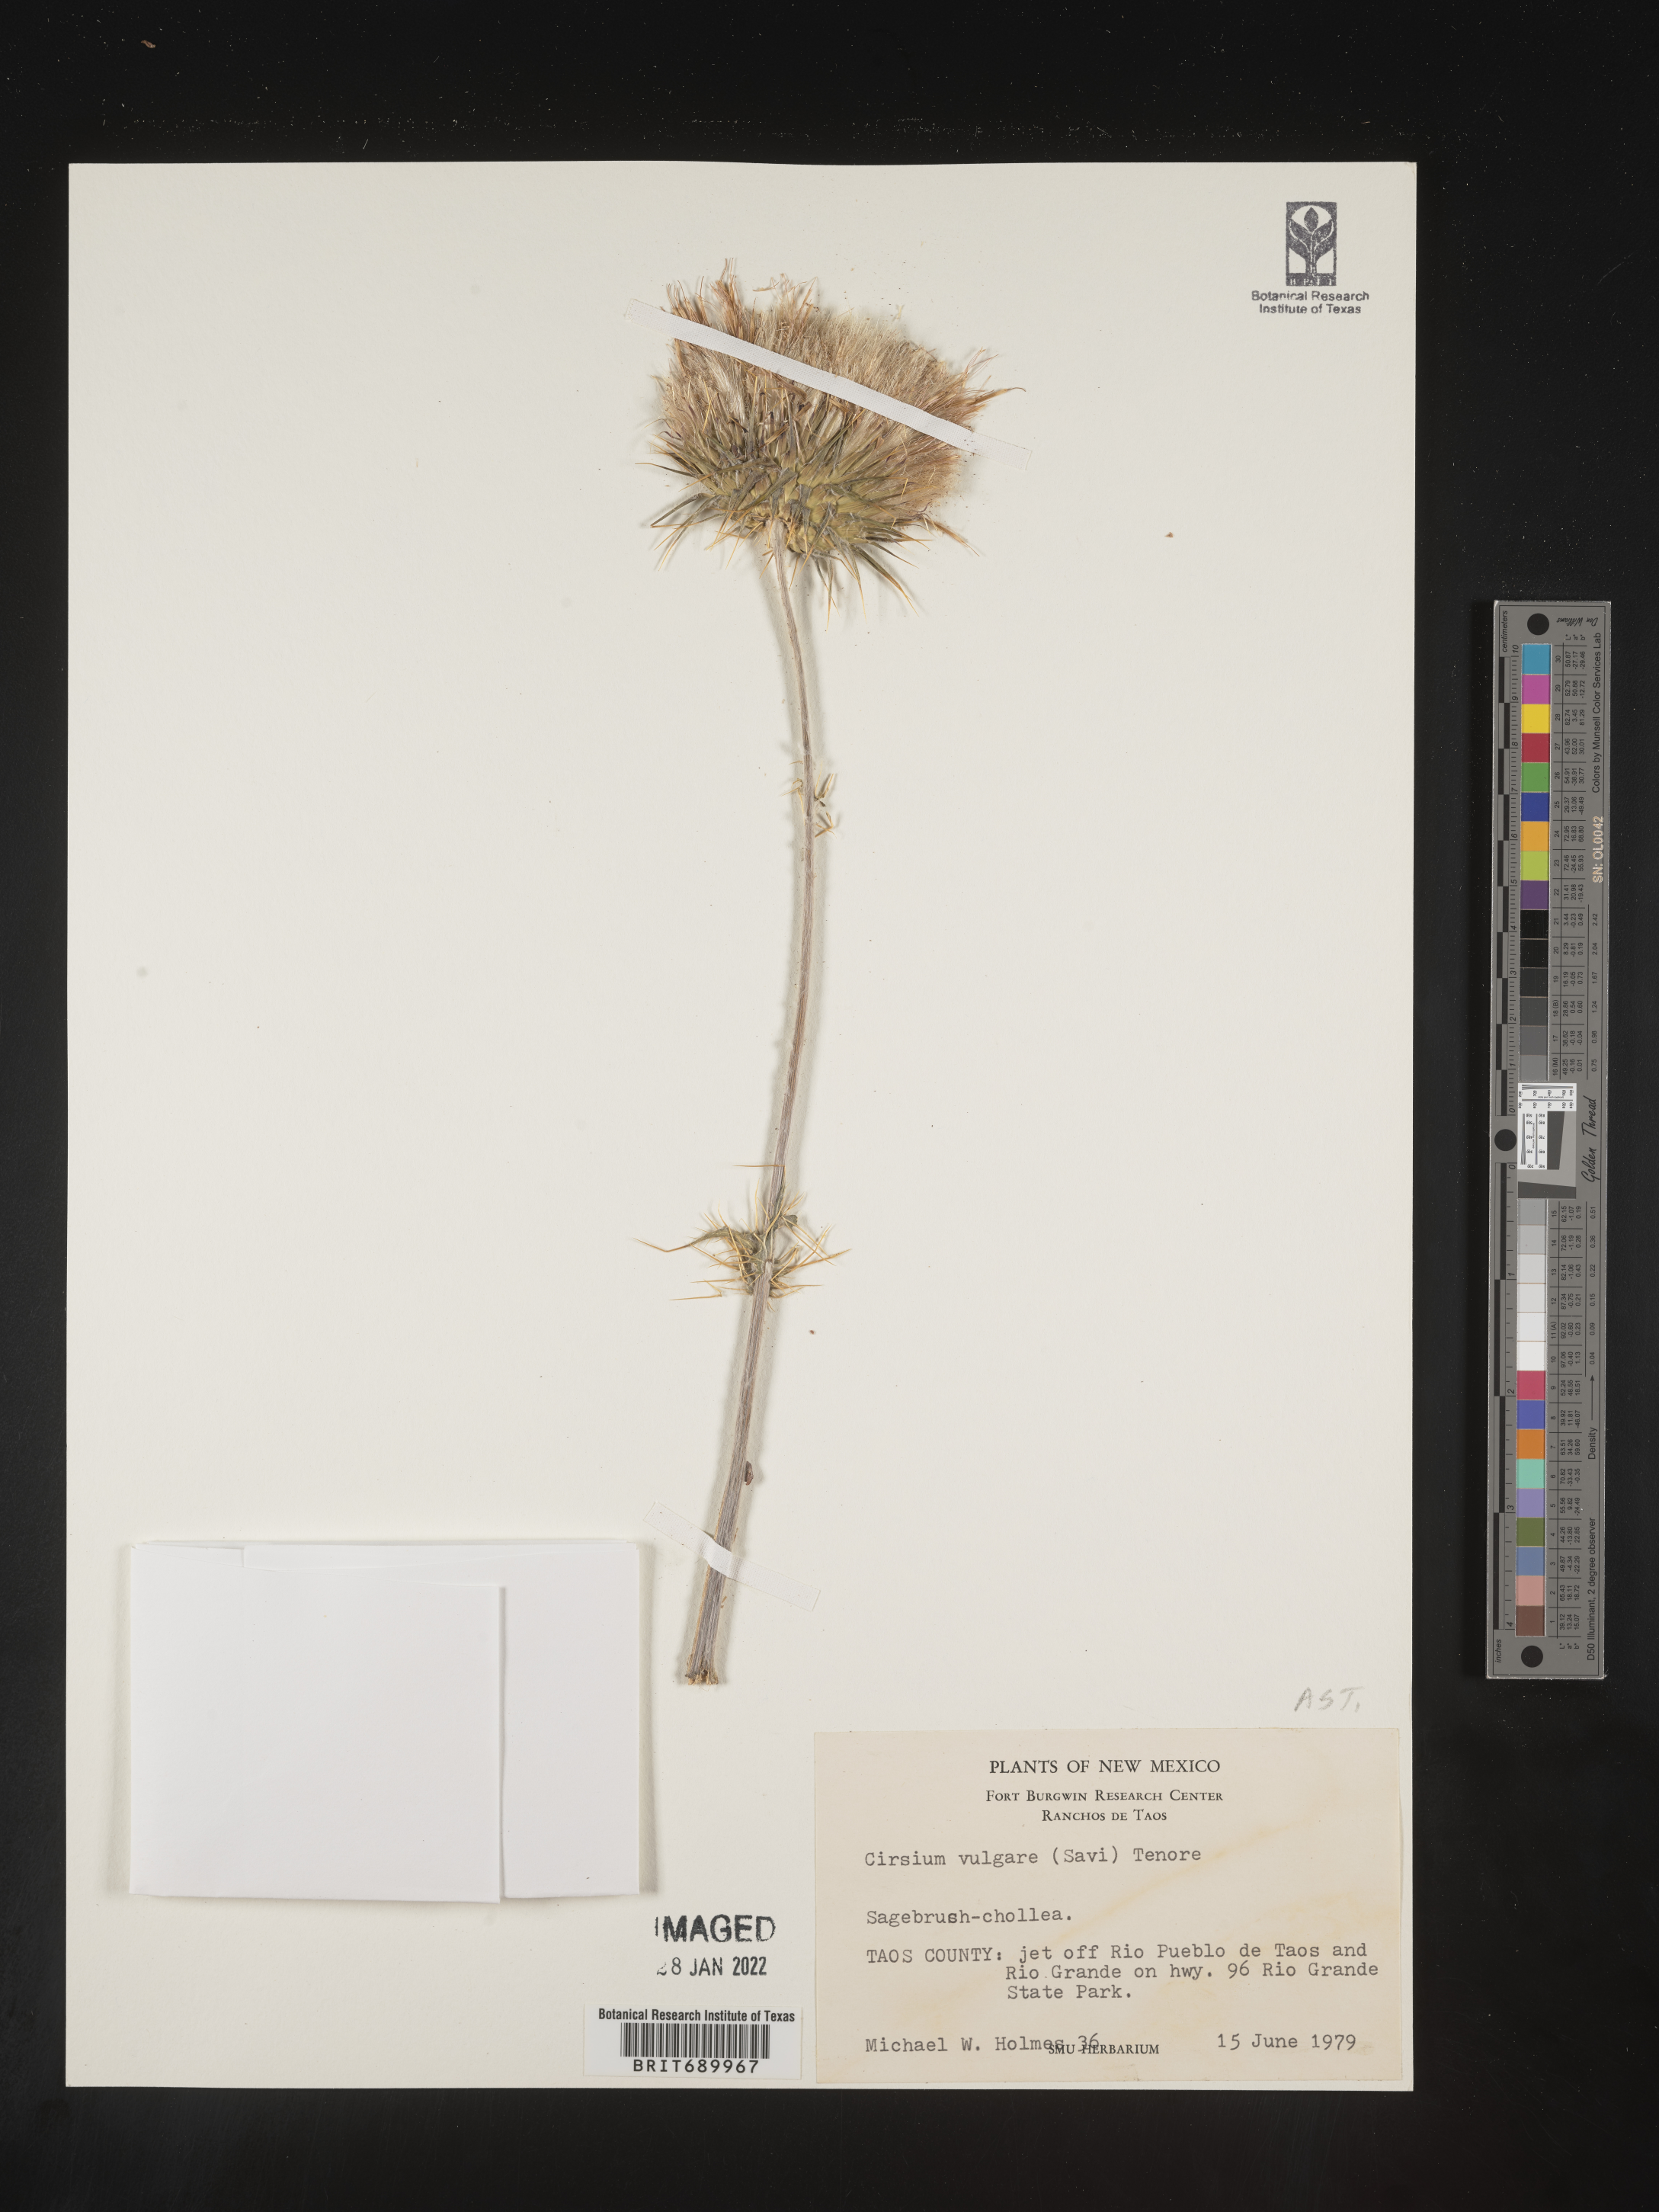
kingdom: Plantae
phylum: Tracheophyta
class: Magnoliopsida
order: Asterales
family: Asteraceae
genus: Cirsium
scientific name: Cirsium vulgare
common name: Bull thistle
